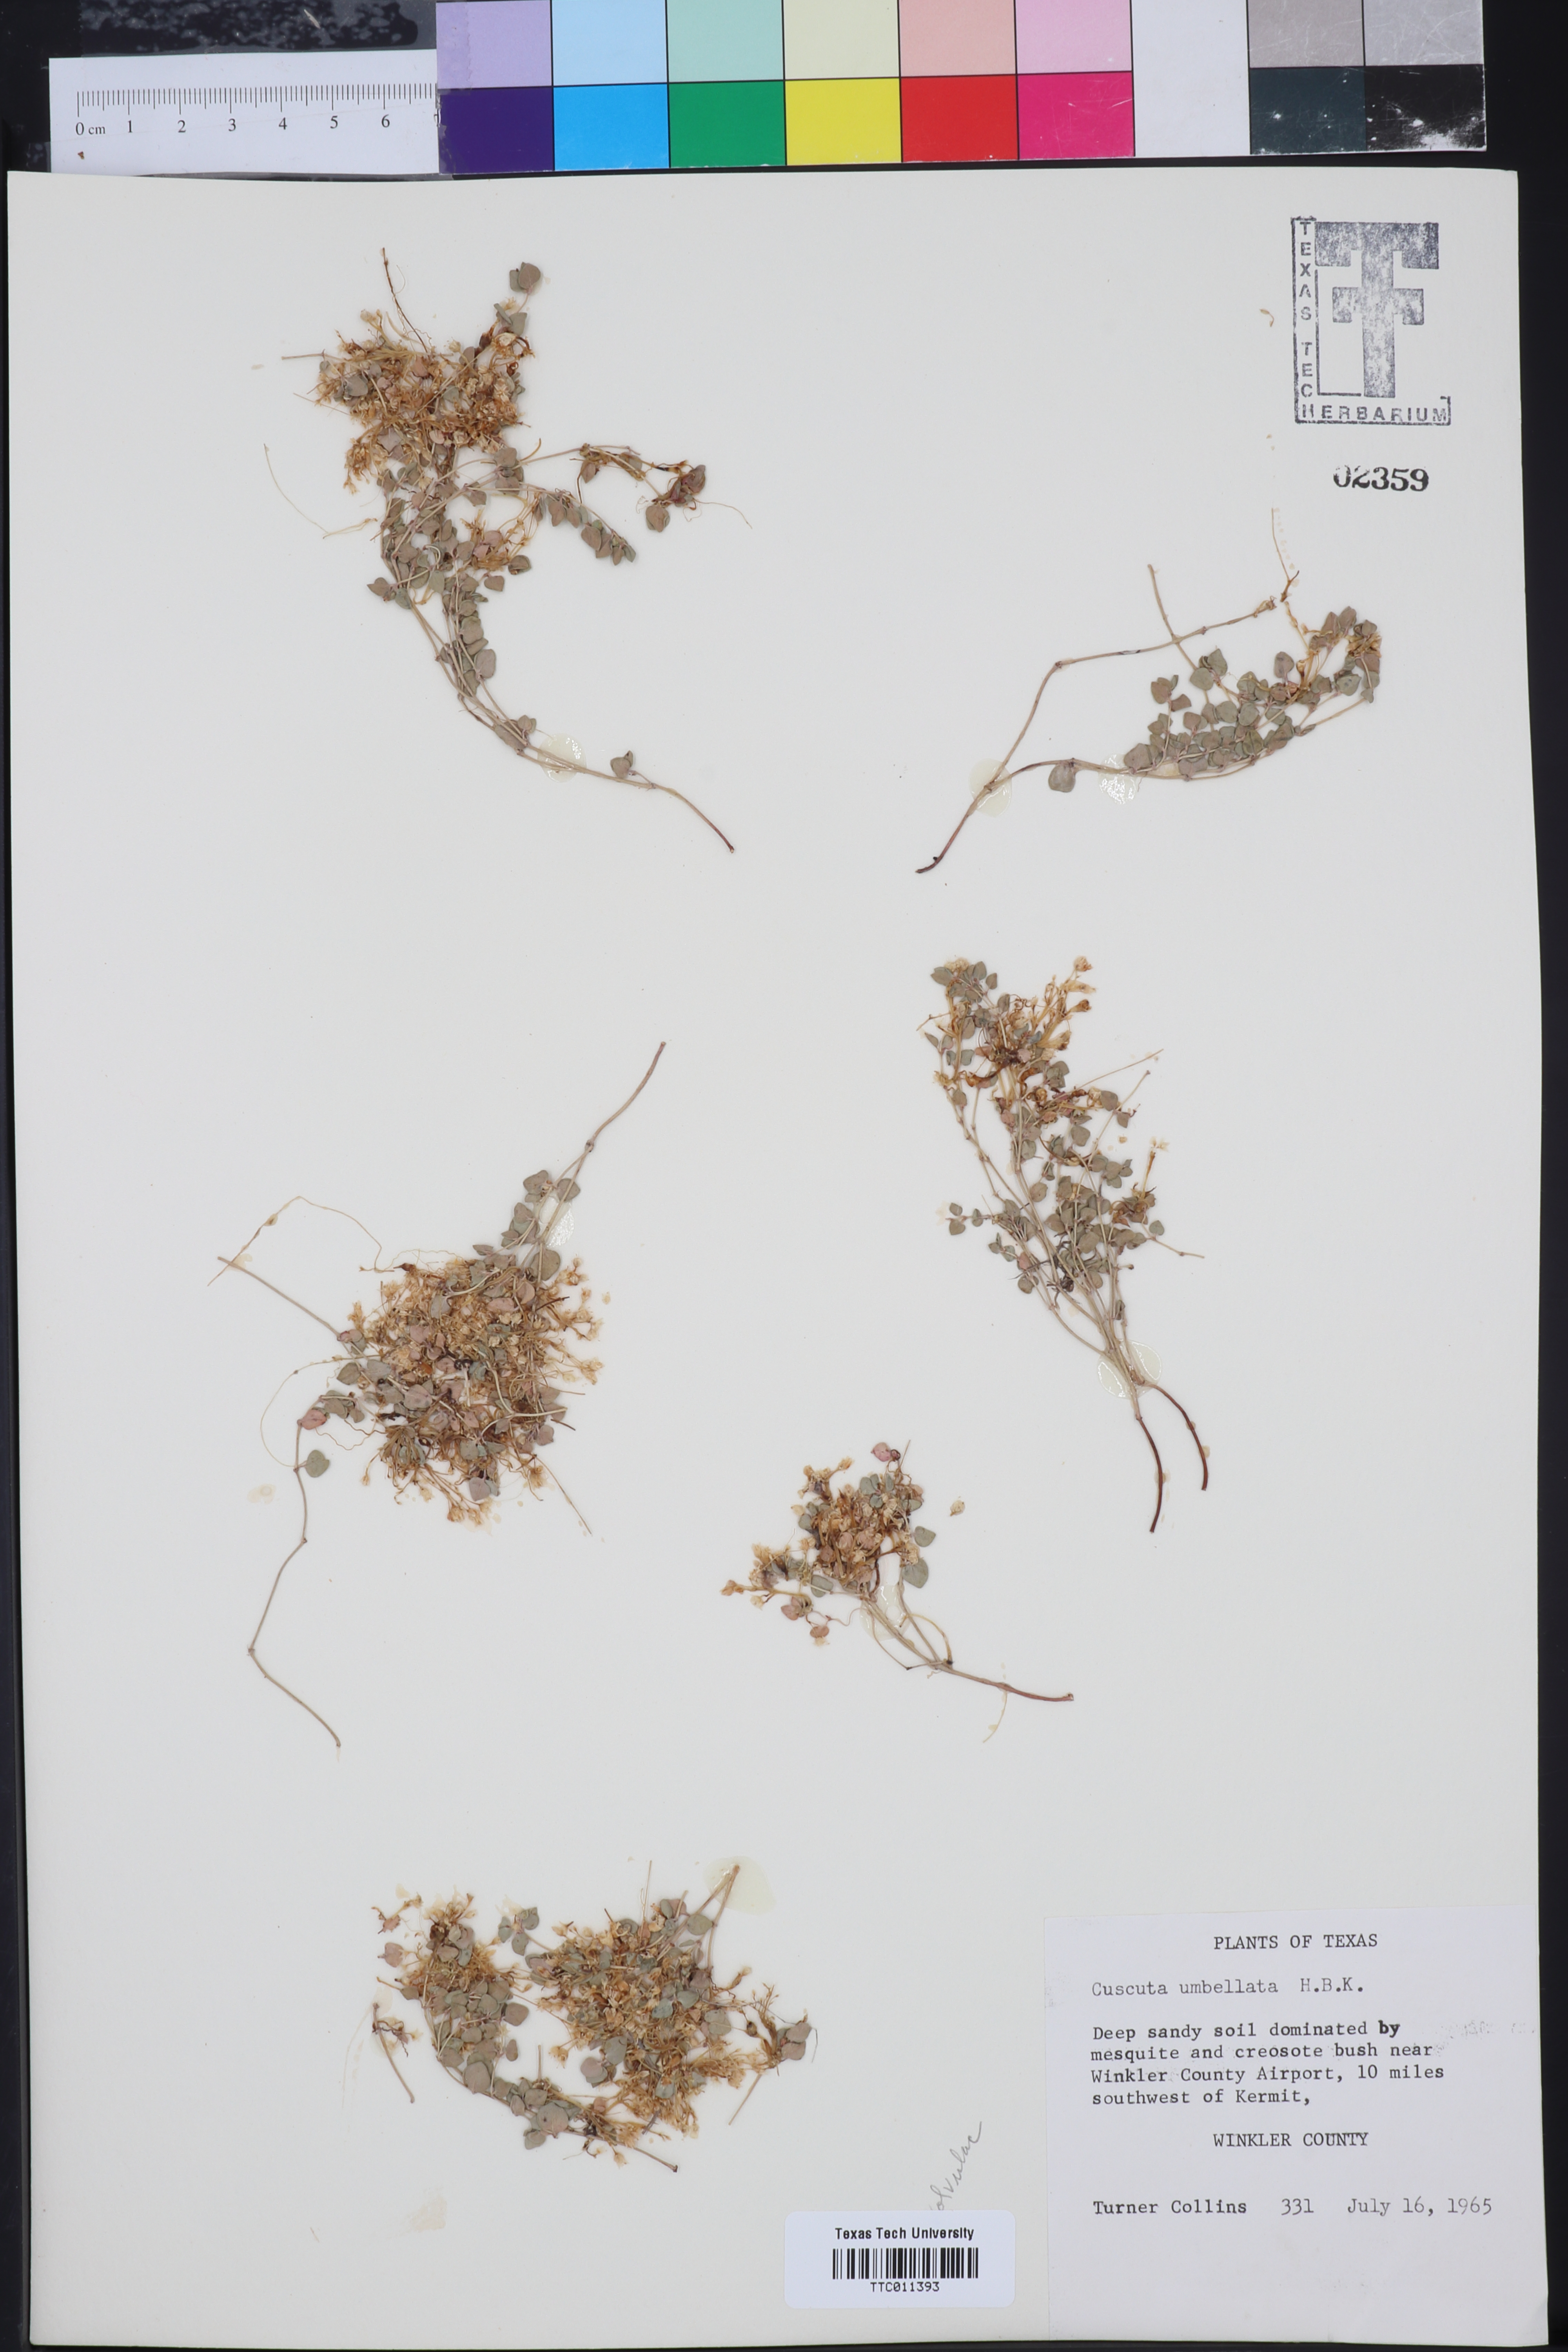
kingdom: Plantae
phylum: Tracheophyta
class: Magnoliopsida
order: Solanales
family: Convolvulaceae
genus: Cuscuta
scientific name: Cuscuta umbellata
